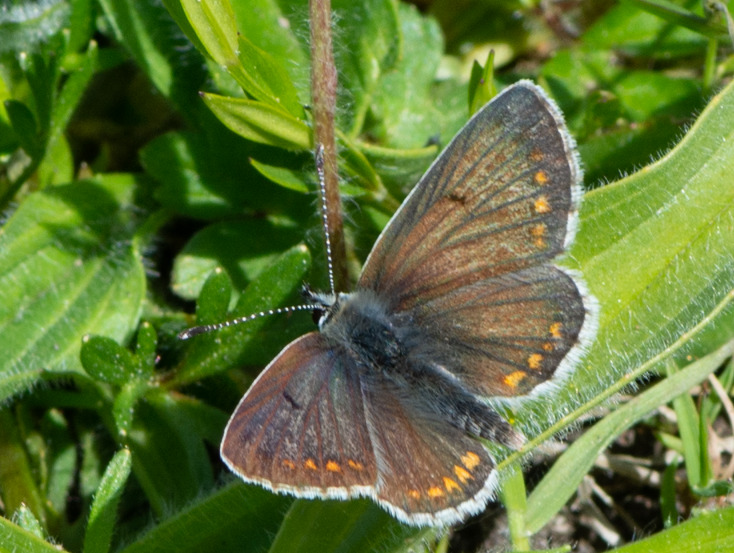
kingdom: Animalia
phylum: Arthropoda
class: Insecta
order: Lepidoptera
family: Lycaenidae
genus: Aricia
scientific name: Aricia agestis
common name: Rødplettet blåfugl
